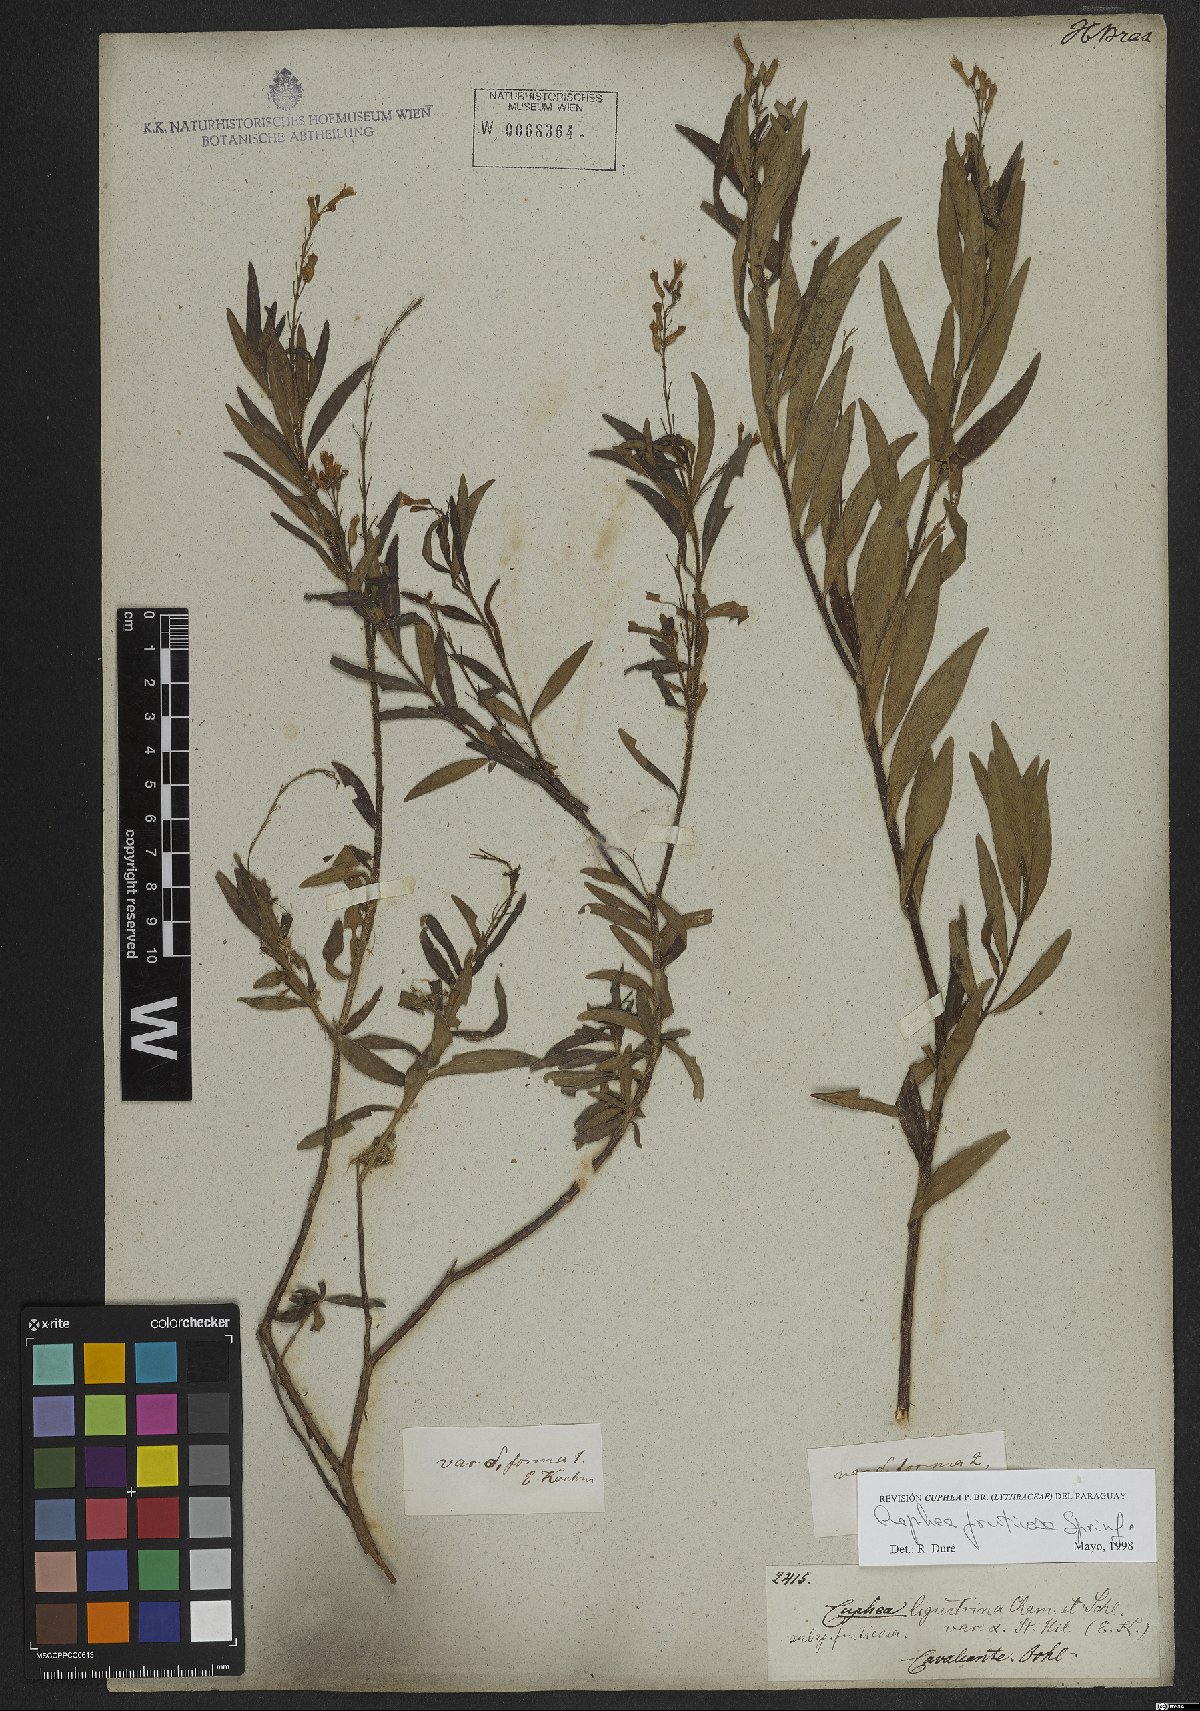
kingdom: Plantae
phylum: Tracheophyta
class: Magnoliopsida
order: Myrtales
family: Lythraceae
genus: Cuphea
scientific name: Cuphea fruticosa
